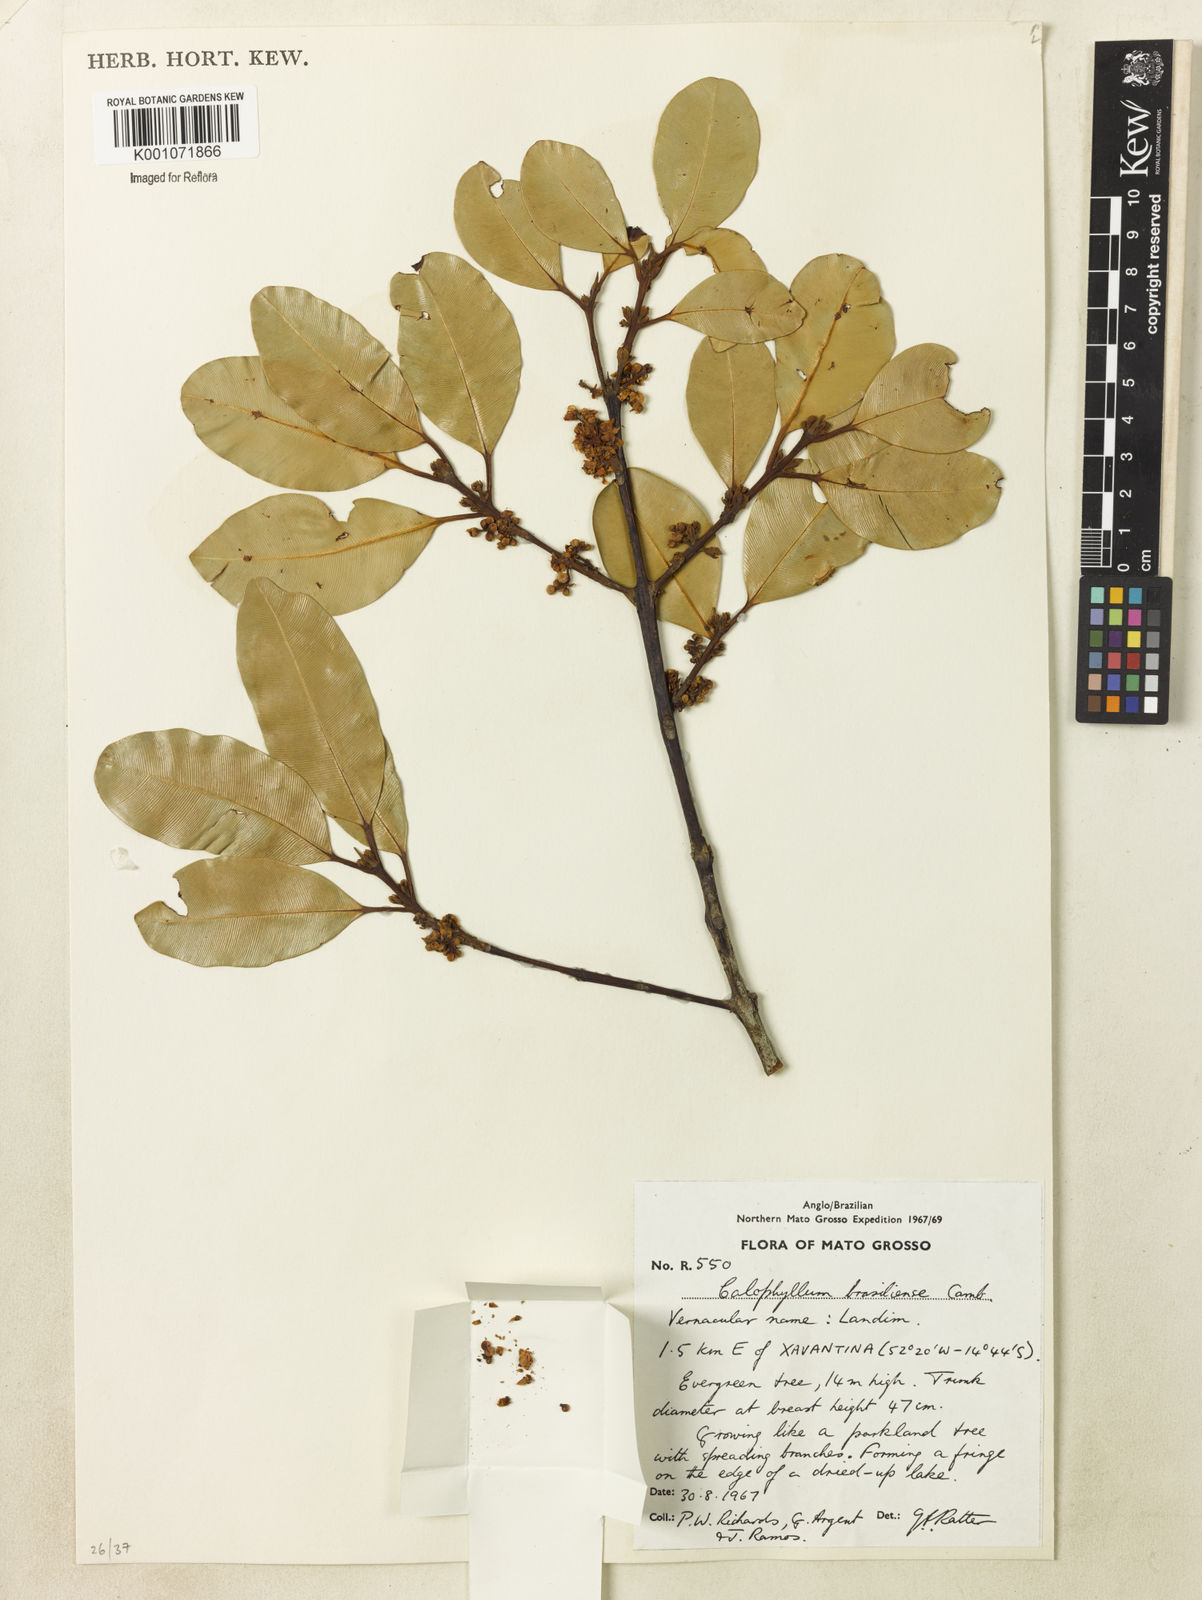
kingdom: Plantae
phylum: Tracheophyta
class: Magnoliopsida
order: Malpighiales
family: Calophyllaceae
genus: Calophyllum
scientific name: Calophyllum brasiliense
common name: Santa maria
